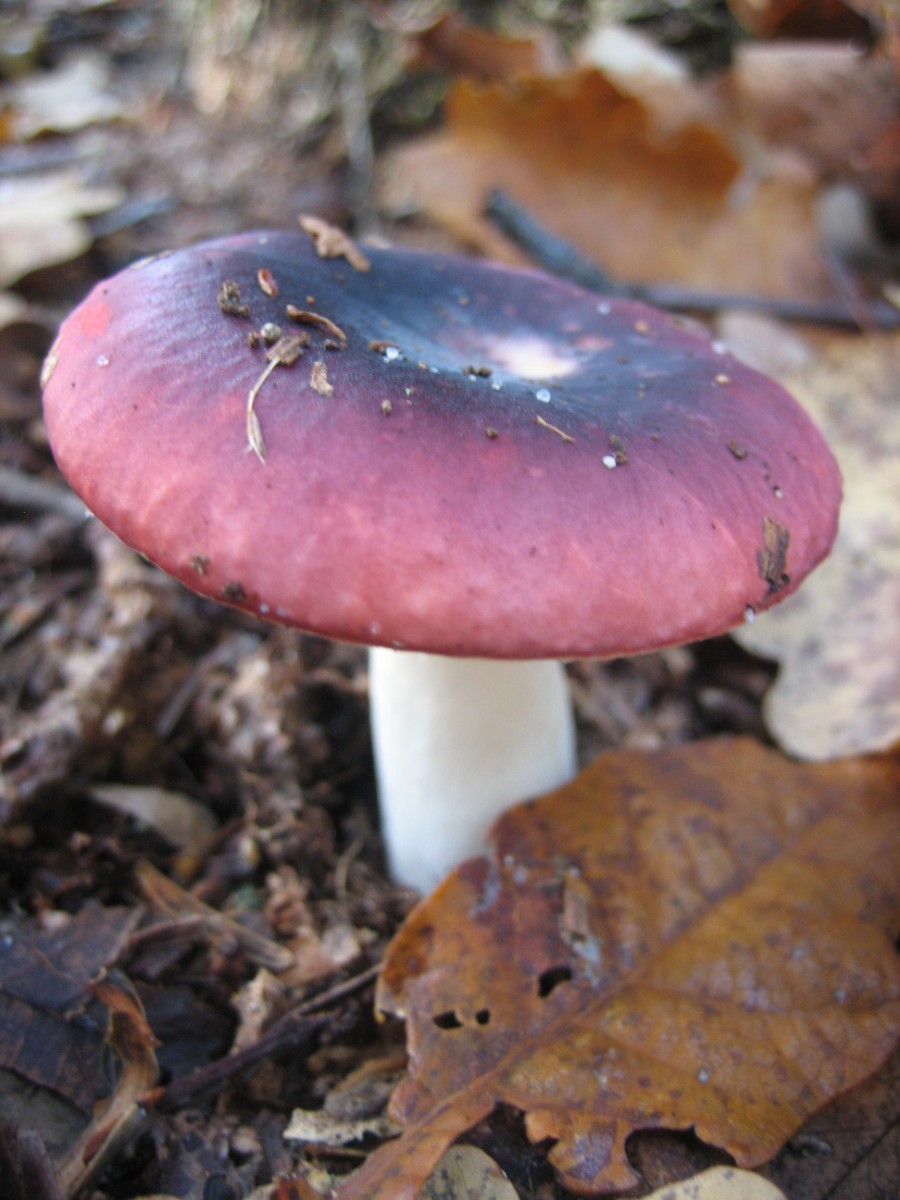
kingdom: Fungi
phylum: Basidiomycota
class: Agaricomycetes
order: Russulales
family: Russulaceae
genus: Russula
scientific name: Russula fragilis
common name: savbladet skørhat
